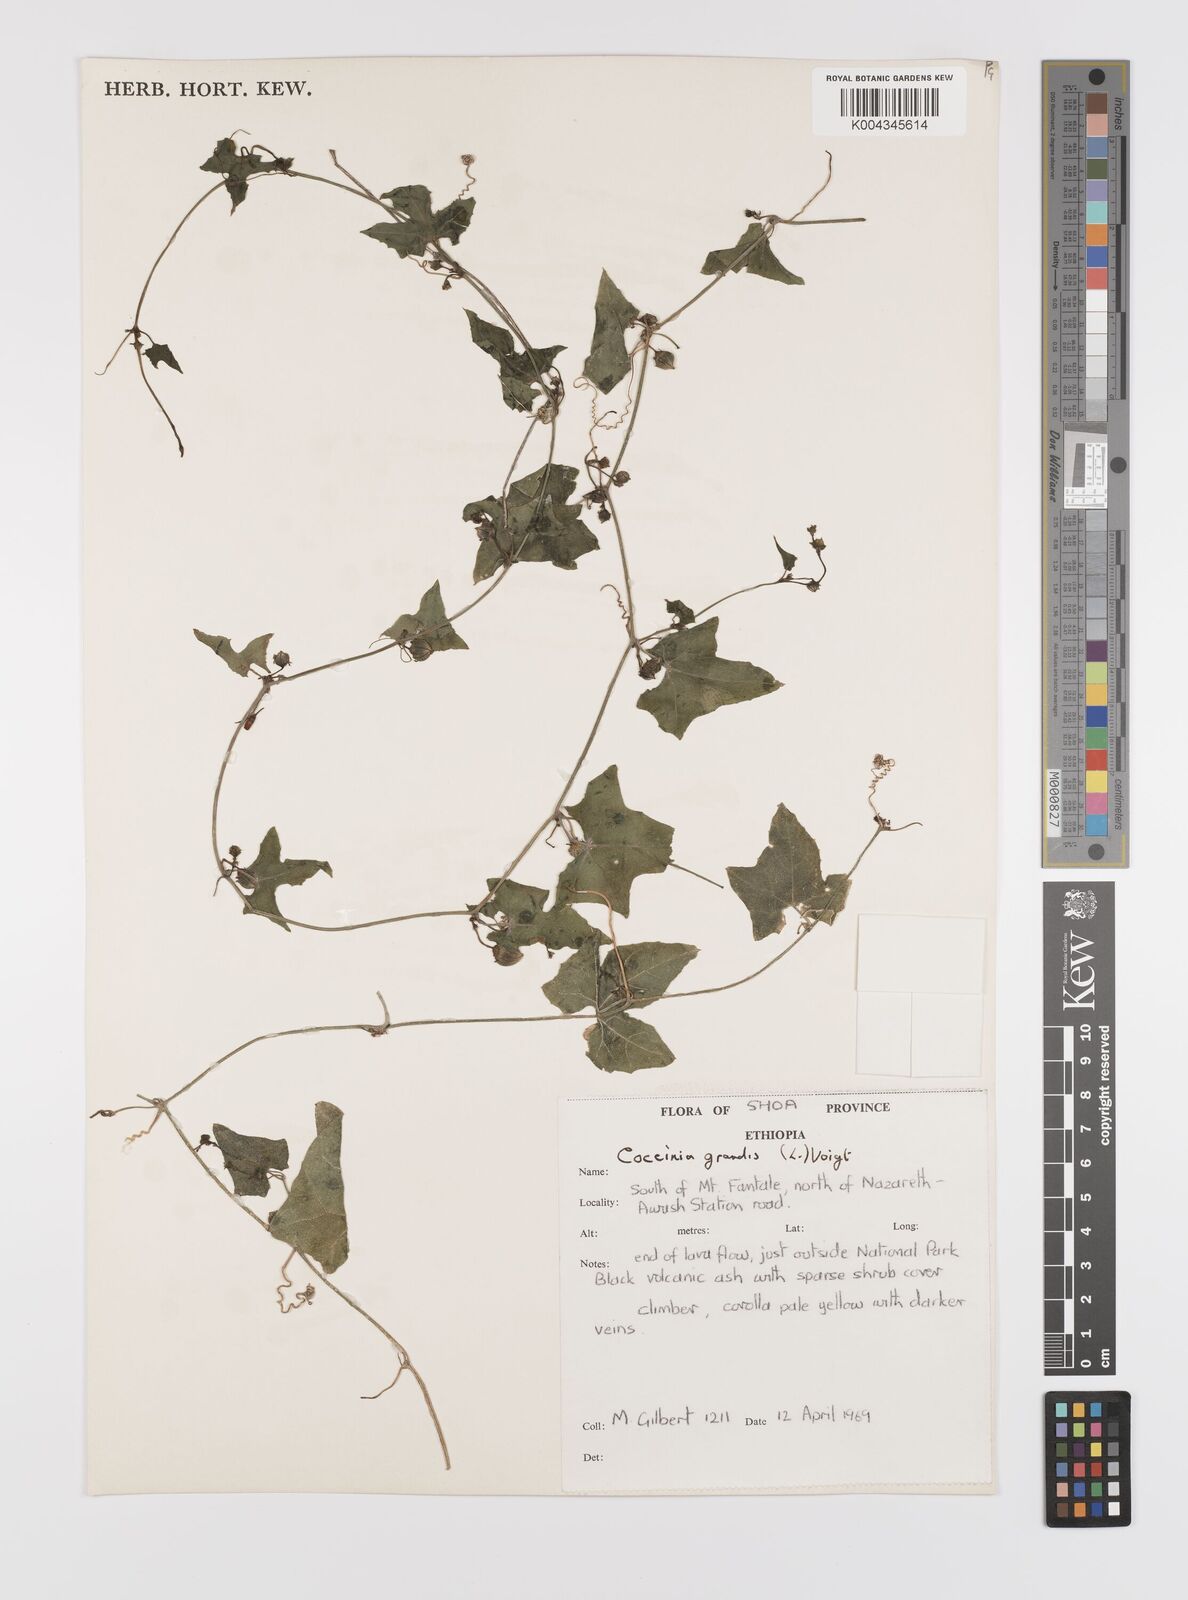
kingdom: Plantae
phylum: Tracheophyta
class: Magnoliopsida
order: Cucurbitales
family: Cucurbitaceae
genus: Coccinia
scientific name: Coccinia grandis
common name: Ivy gourd
